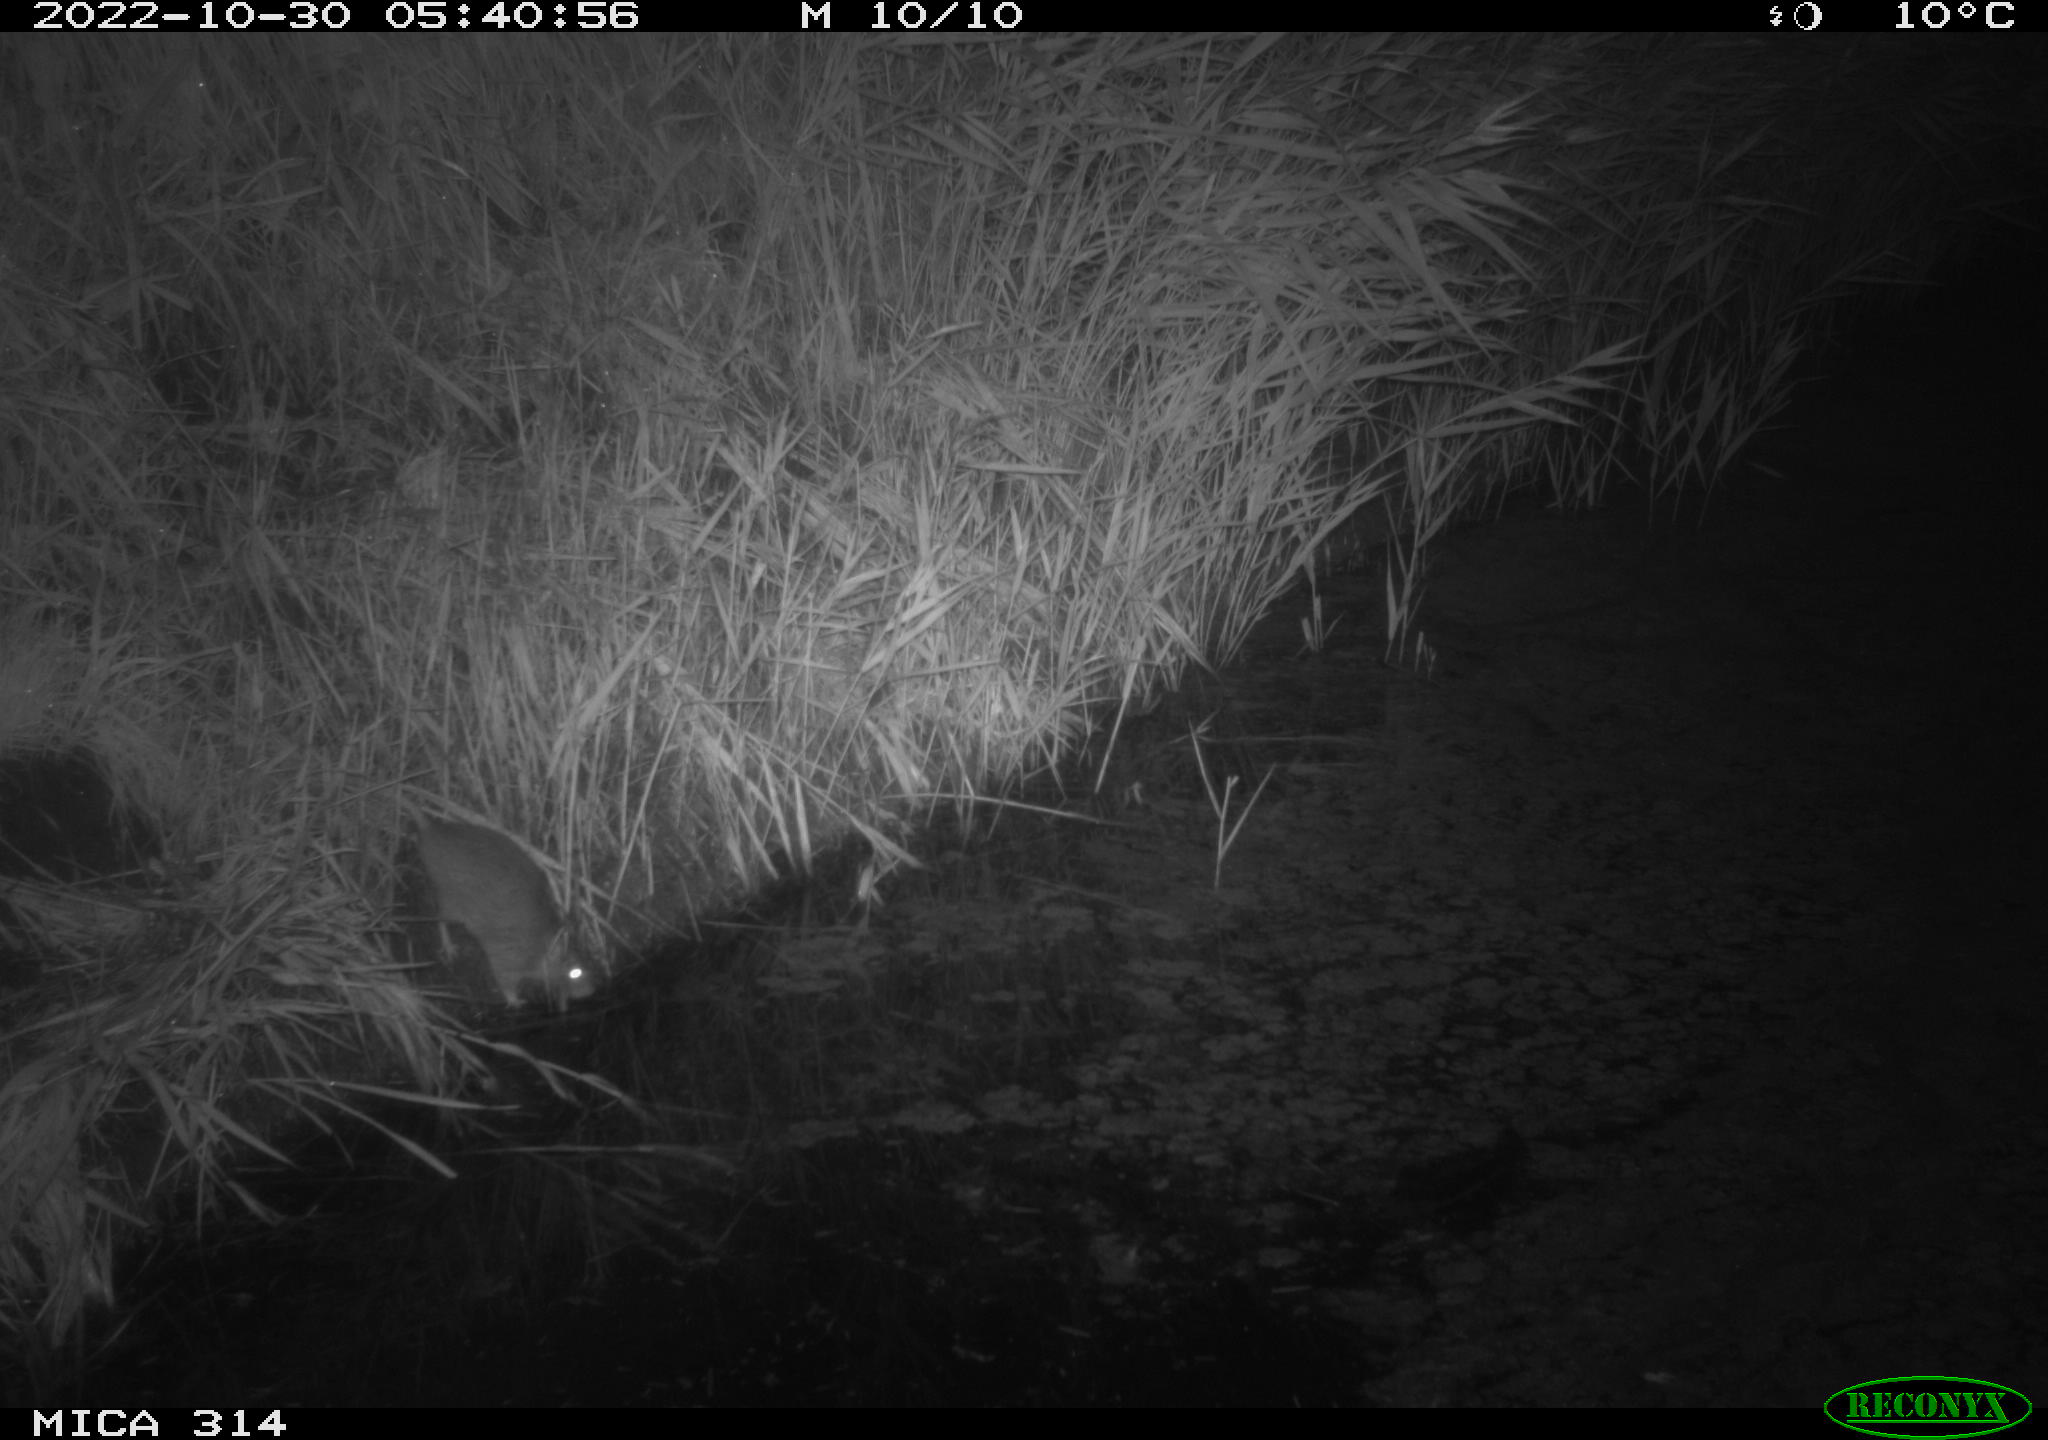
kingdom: Animalia
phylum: Chordata
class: Mammalia
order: Rodentia
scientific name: Rodentia
